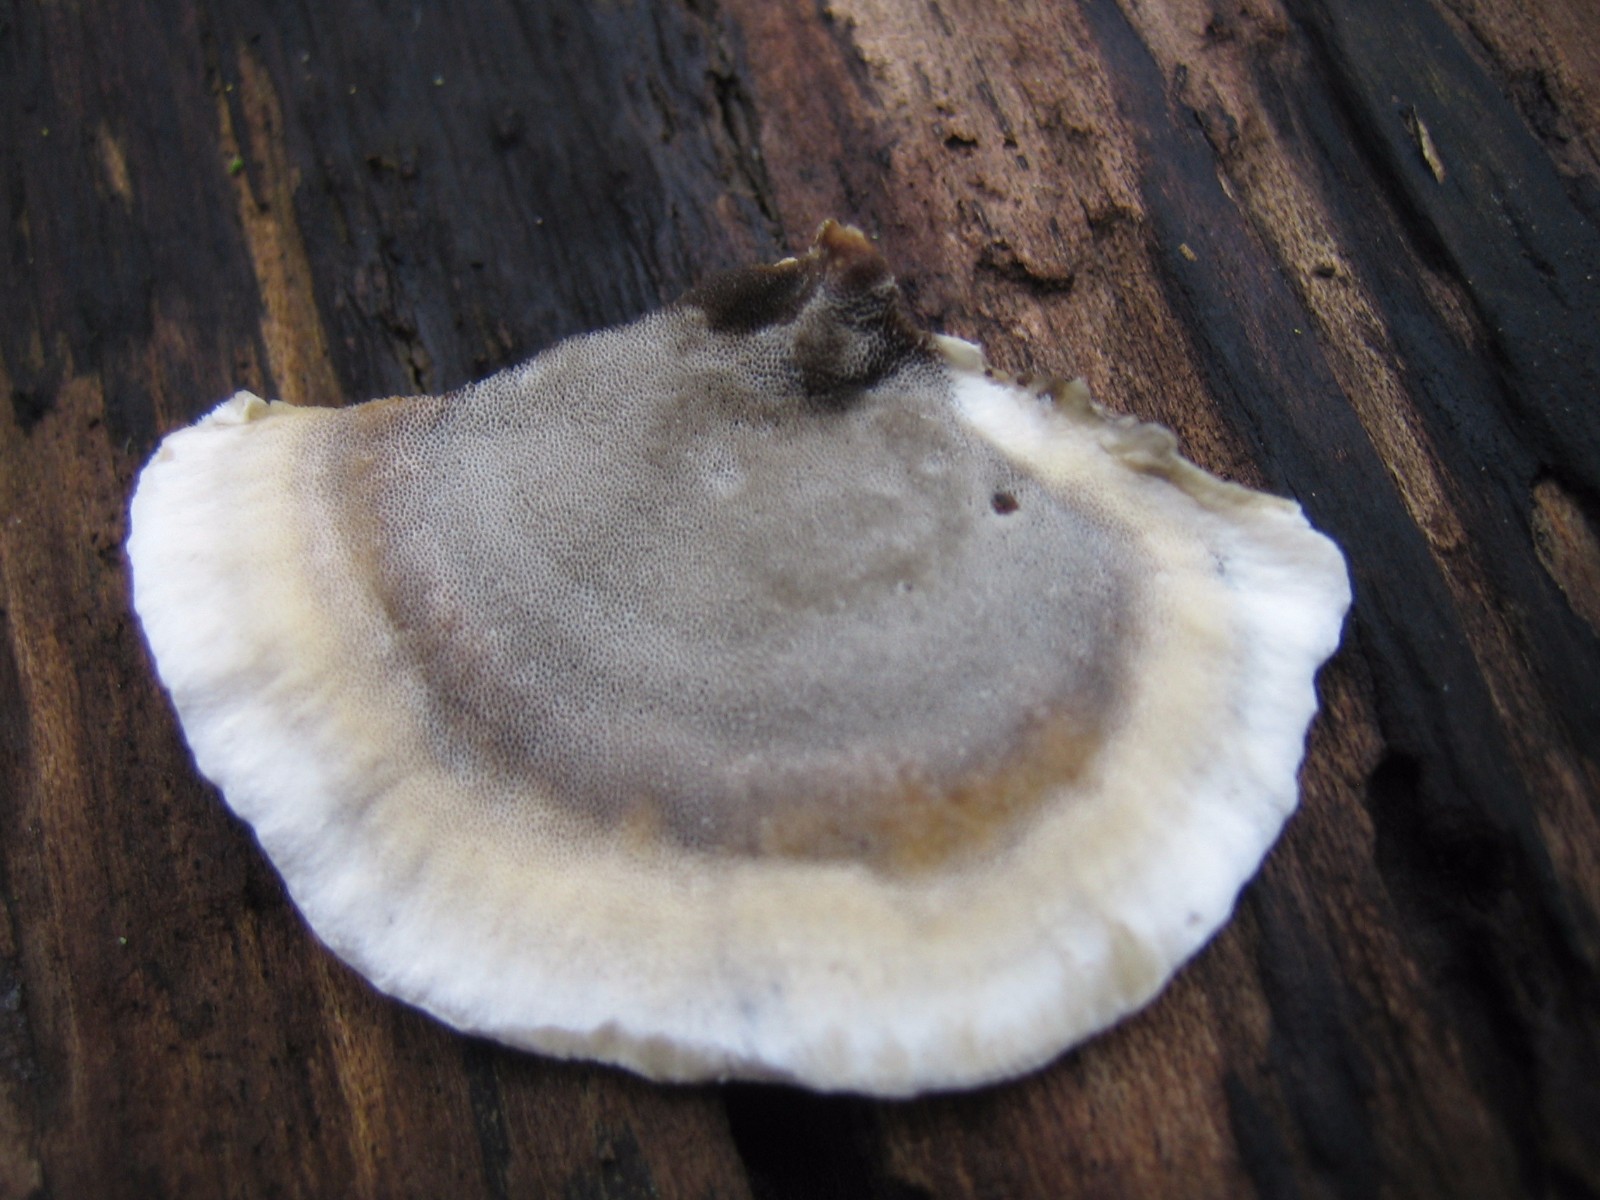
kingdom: Fungi
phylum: Basidiomycota
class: Agaricomycetes
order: Polyporales
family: Phanerochaetaceae
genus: Bjerkandera
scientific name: Bjerkandera adusta
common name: sveden sodporesvamp
